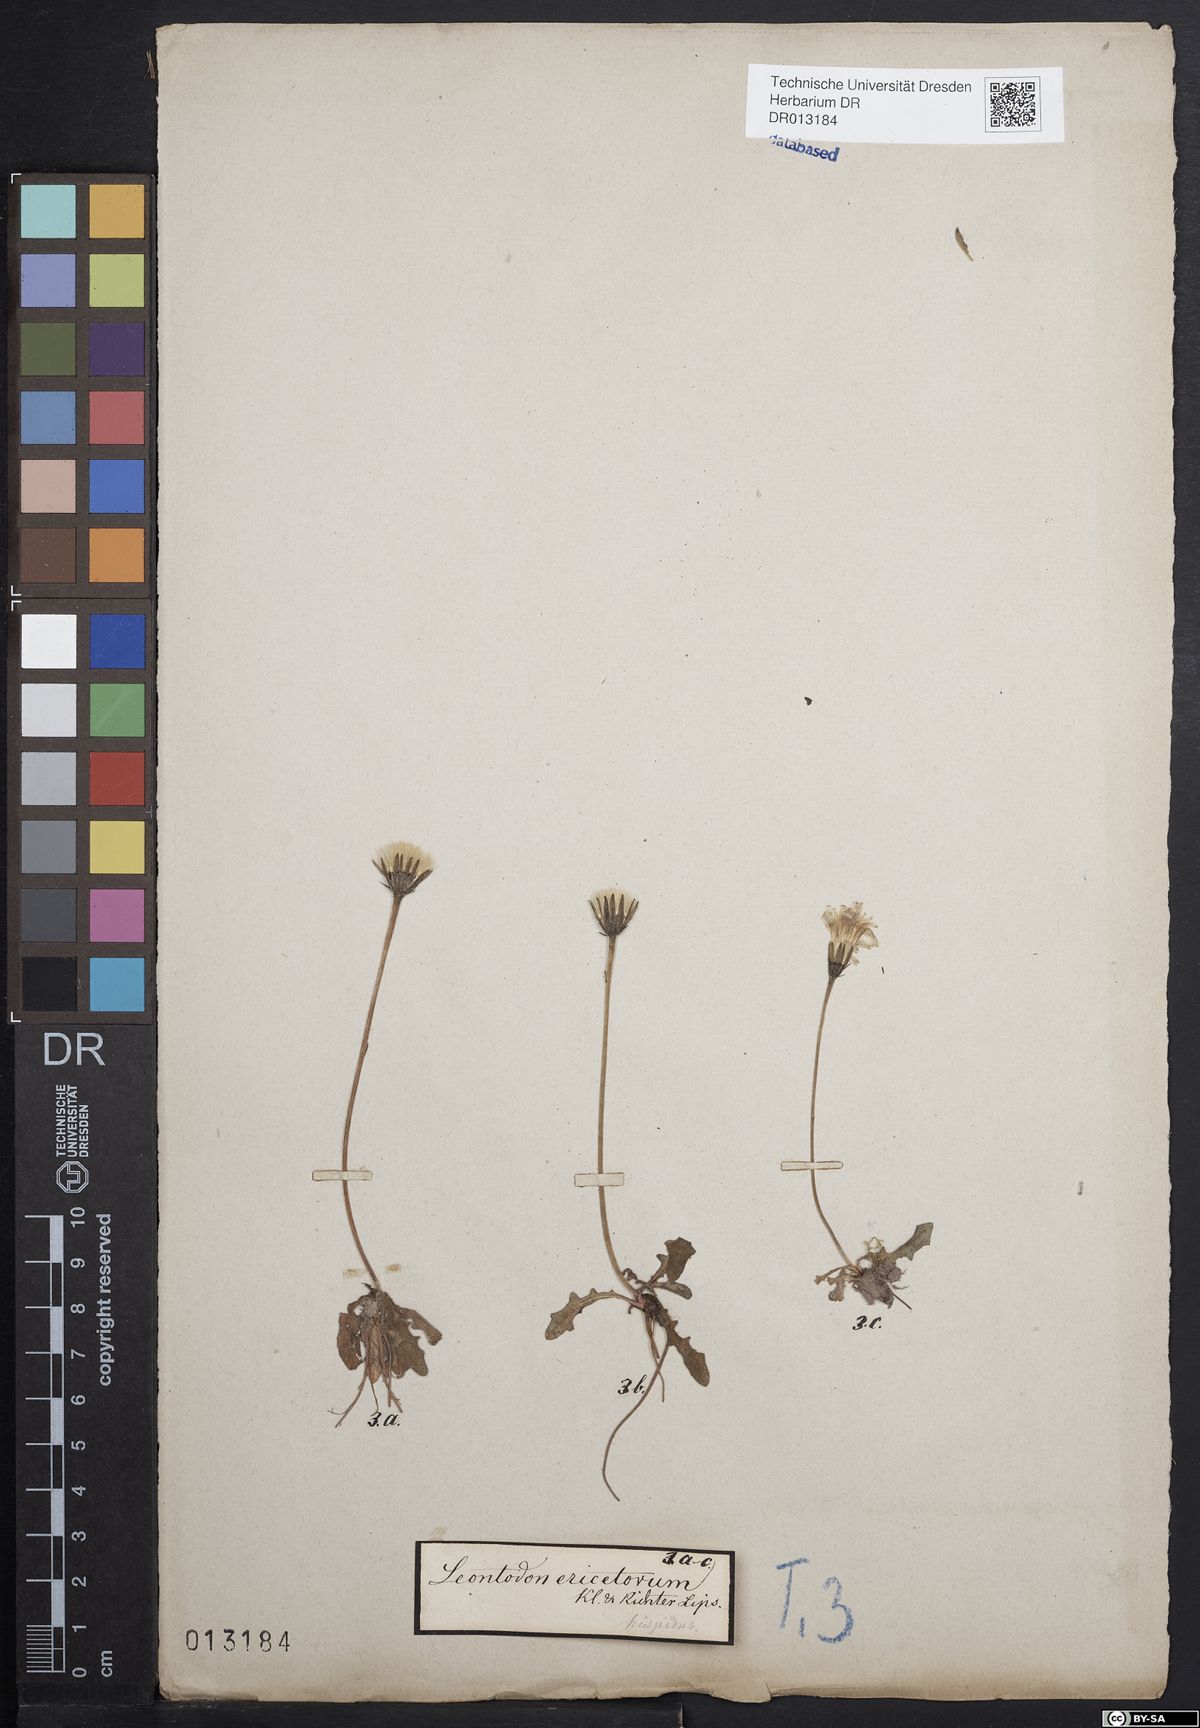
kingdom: Plantae
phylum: Tracheophyta
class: Magnoliopsida
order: Asterales
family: Asteraceae
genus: Leontodon
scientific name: Leontodon hispidus
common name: Rough hawkbit
